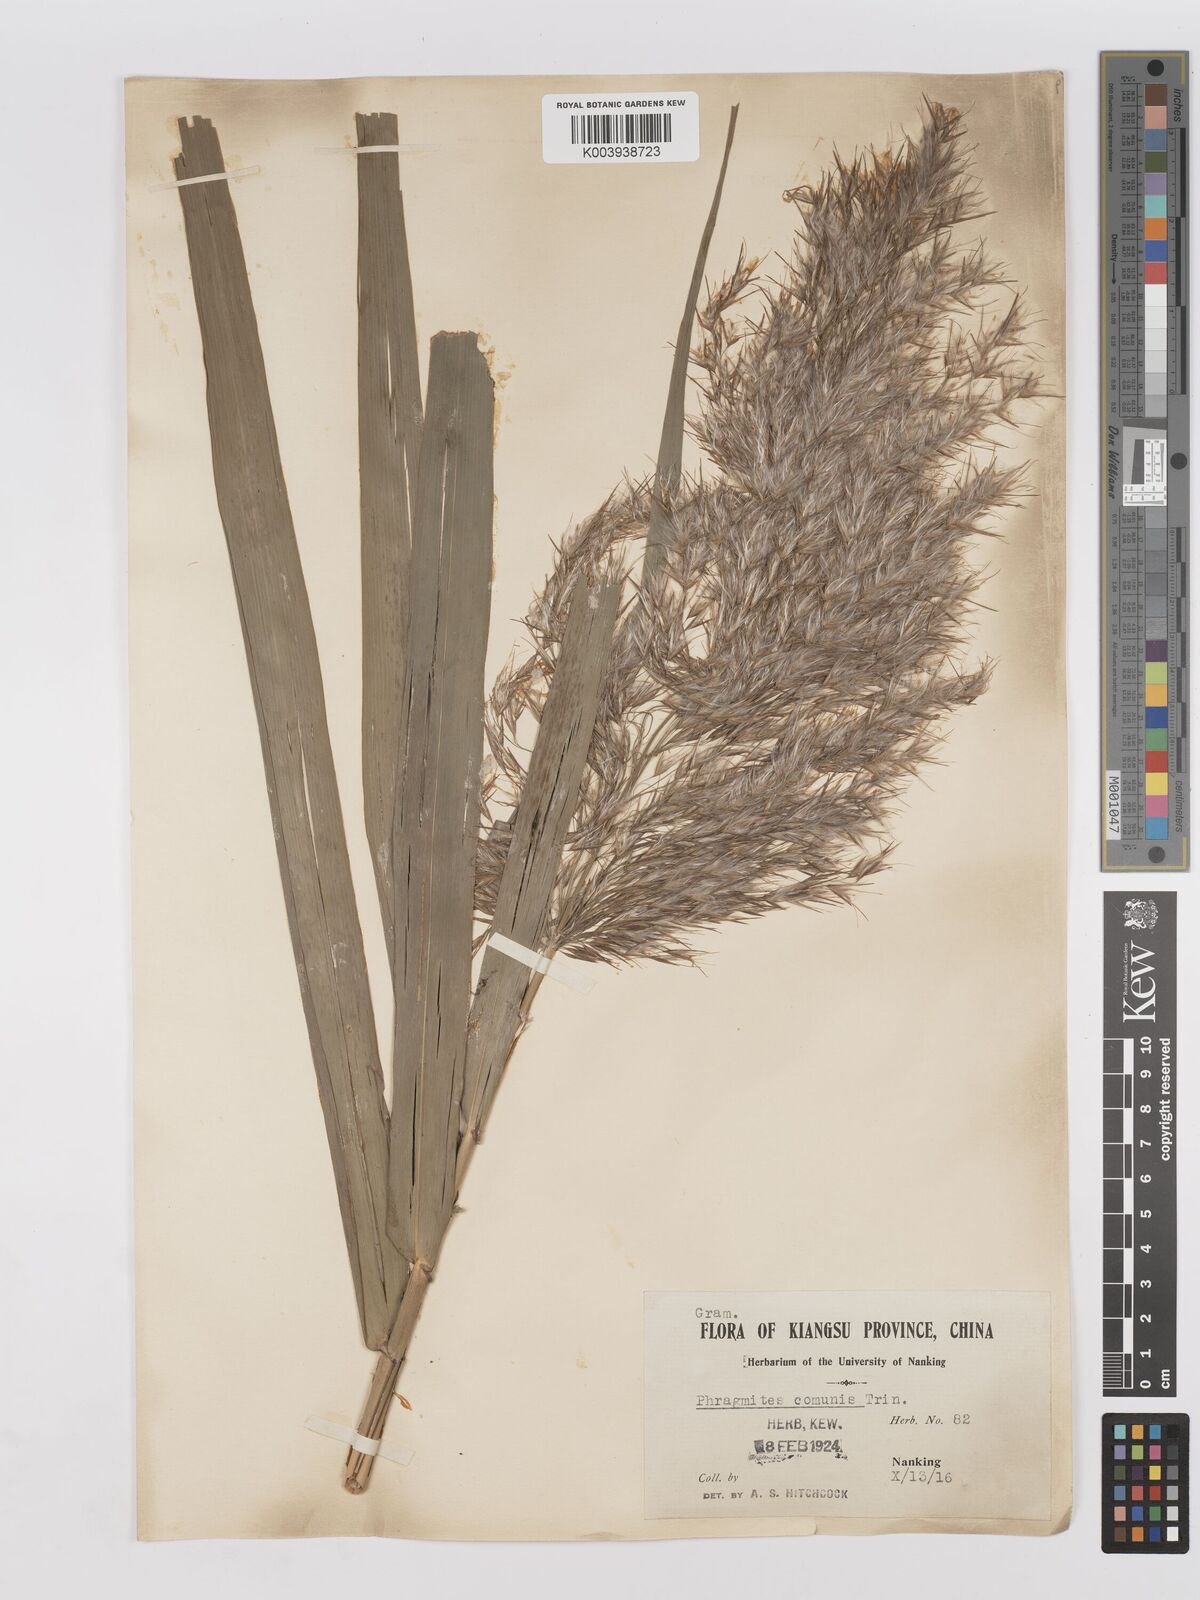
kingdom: Plantae
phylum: Tracheophyta
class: Liliopsida
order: Poales
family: Poaceae
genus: Phragmites
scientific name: Phragmites australis
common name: Common reed
